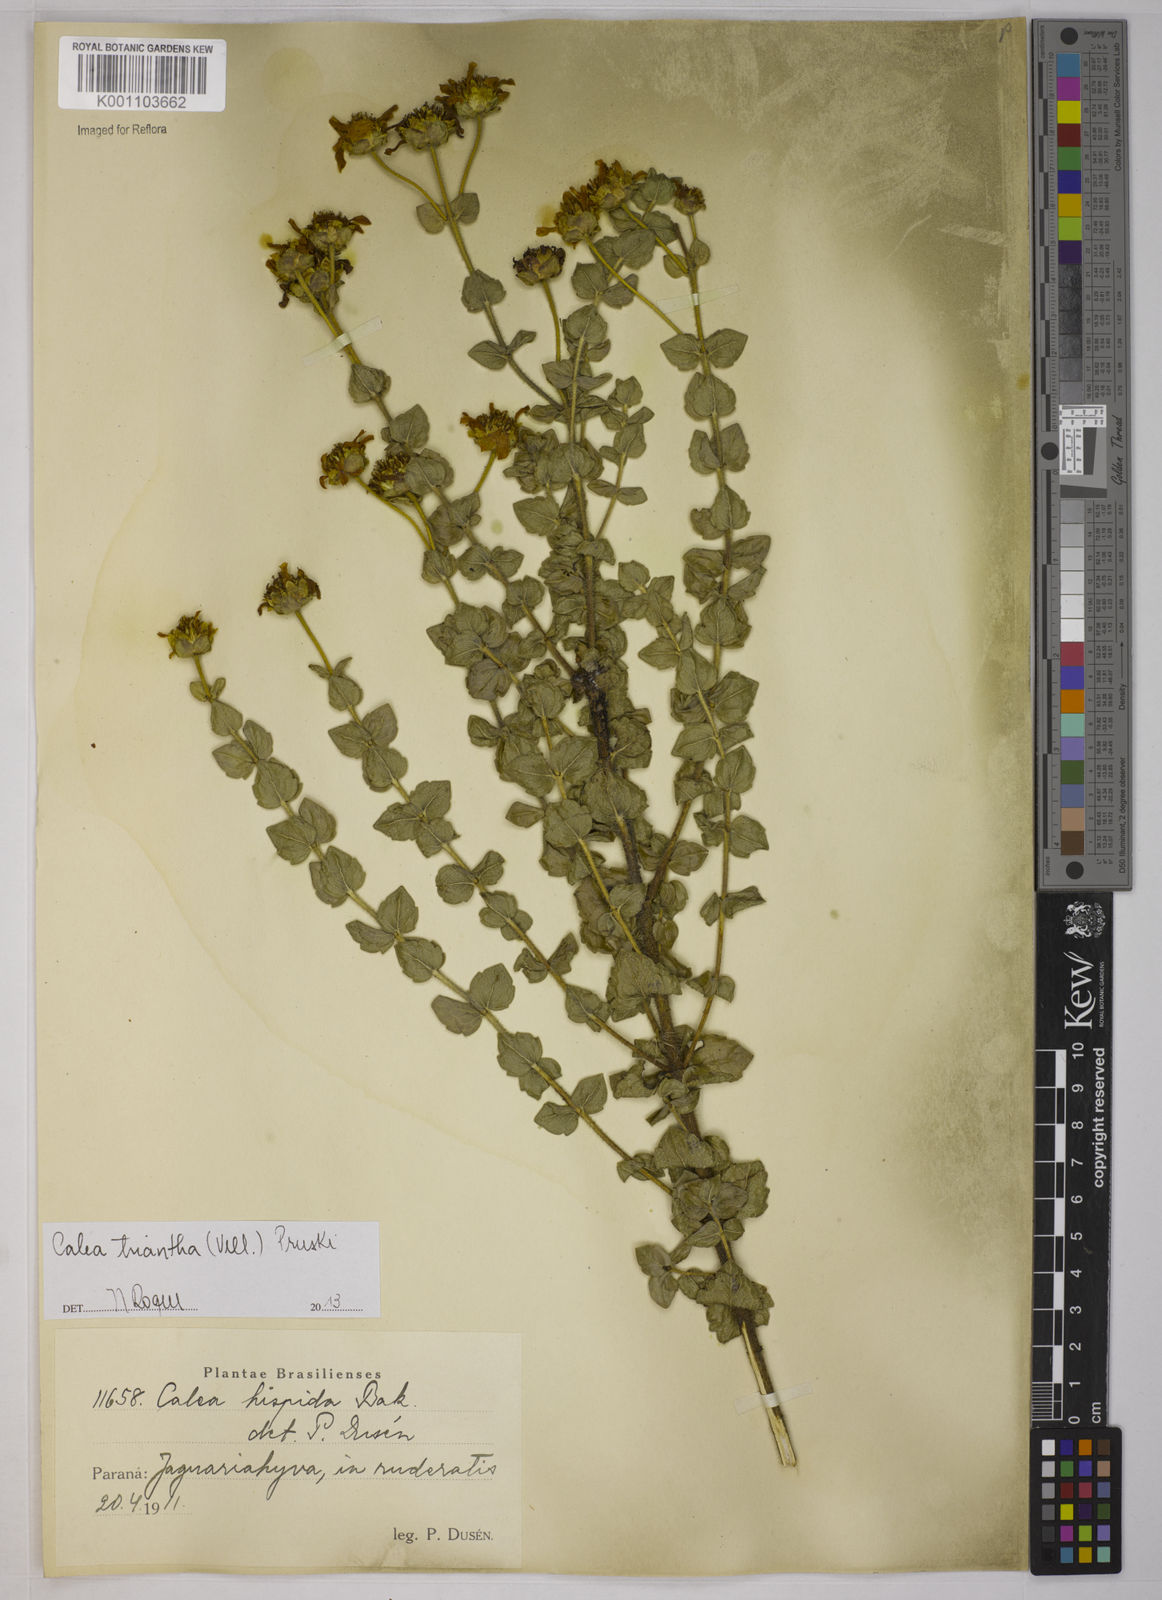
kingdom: Plantae
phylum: Tracheophyta
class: Magnoliopsida
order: Asterales
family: Asteraceae
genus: Calea
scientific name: Calea triantha
